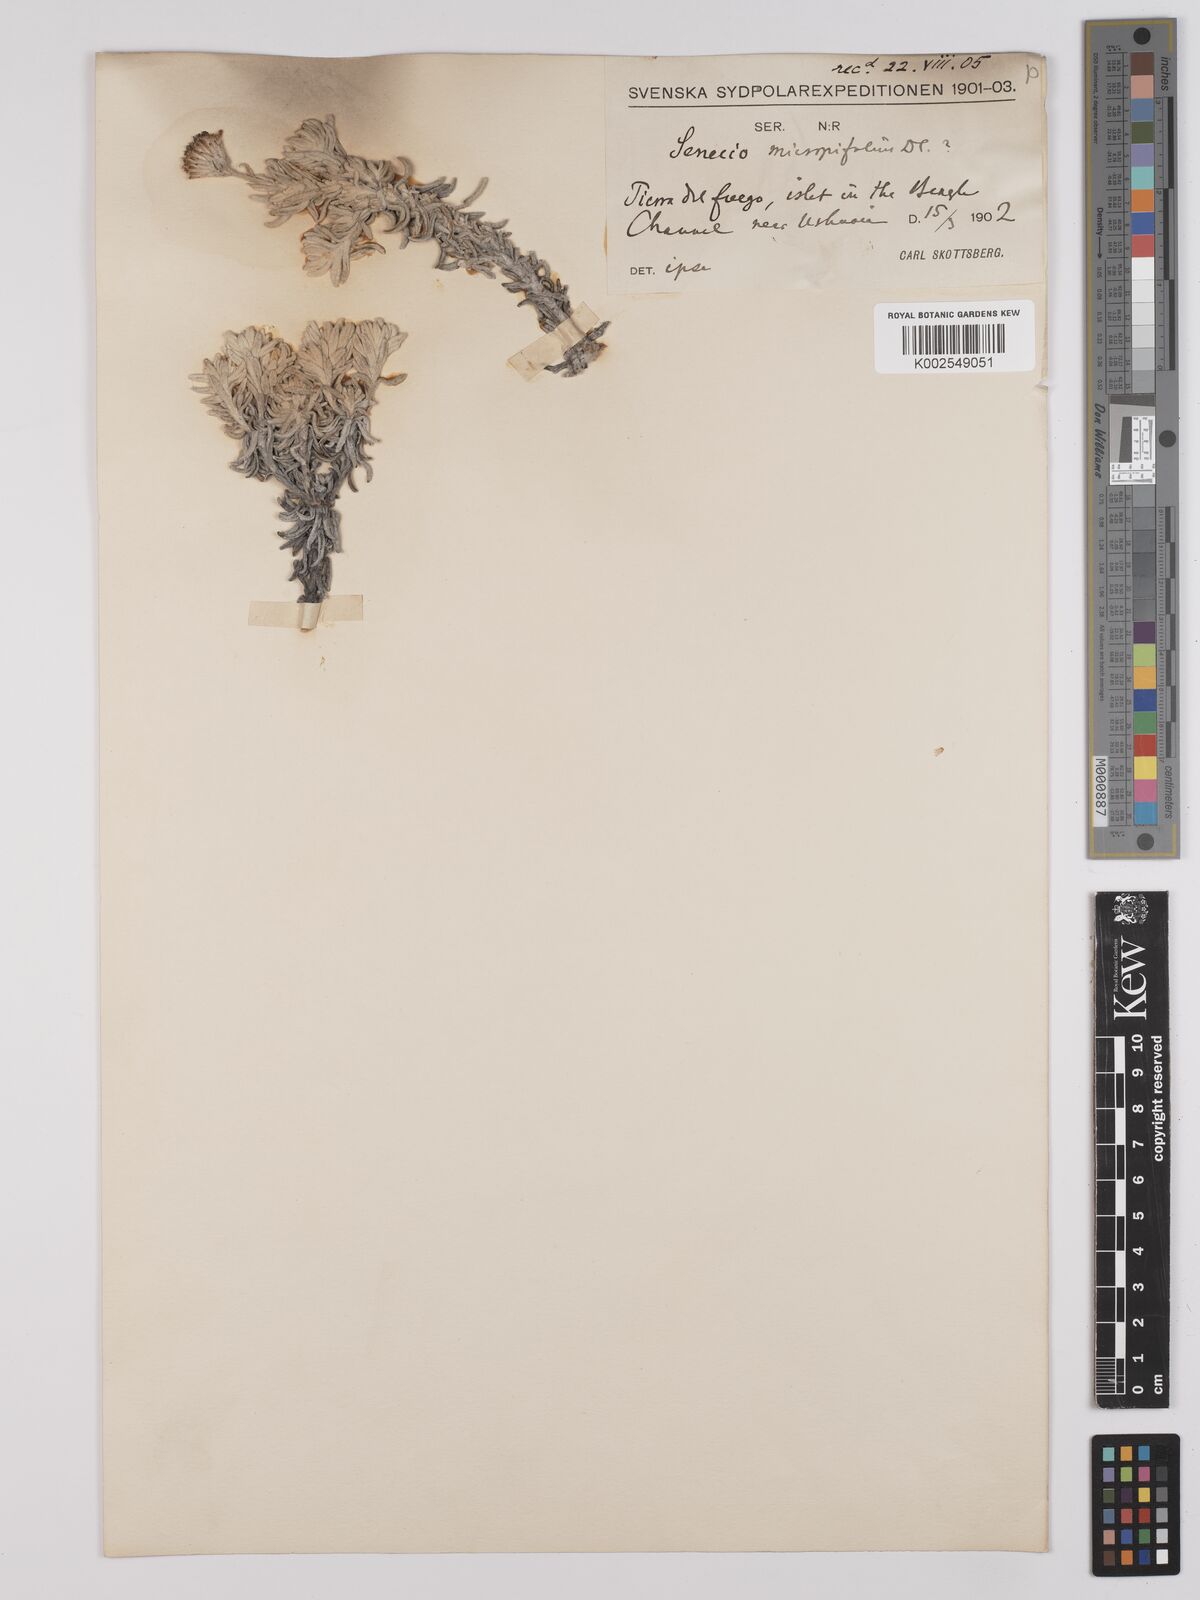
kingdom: Plantae
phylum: Tracheophyta
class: Magnoliopsida
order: Asterales
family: Asteraceae
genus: Senecio
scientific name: Senecio micropifolius
